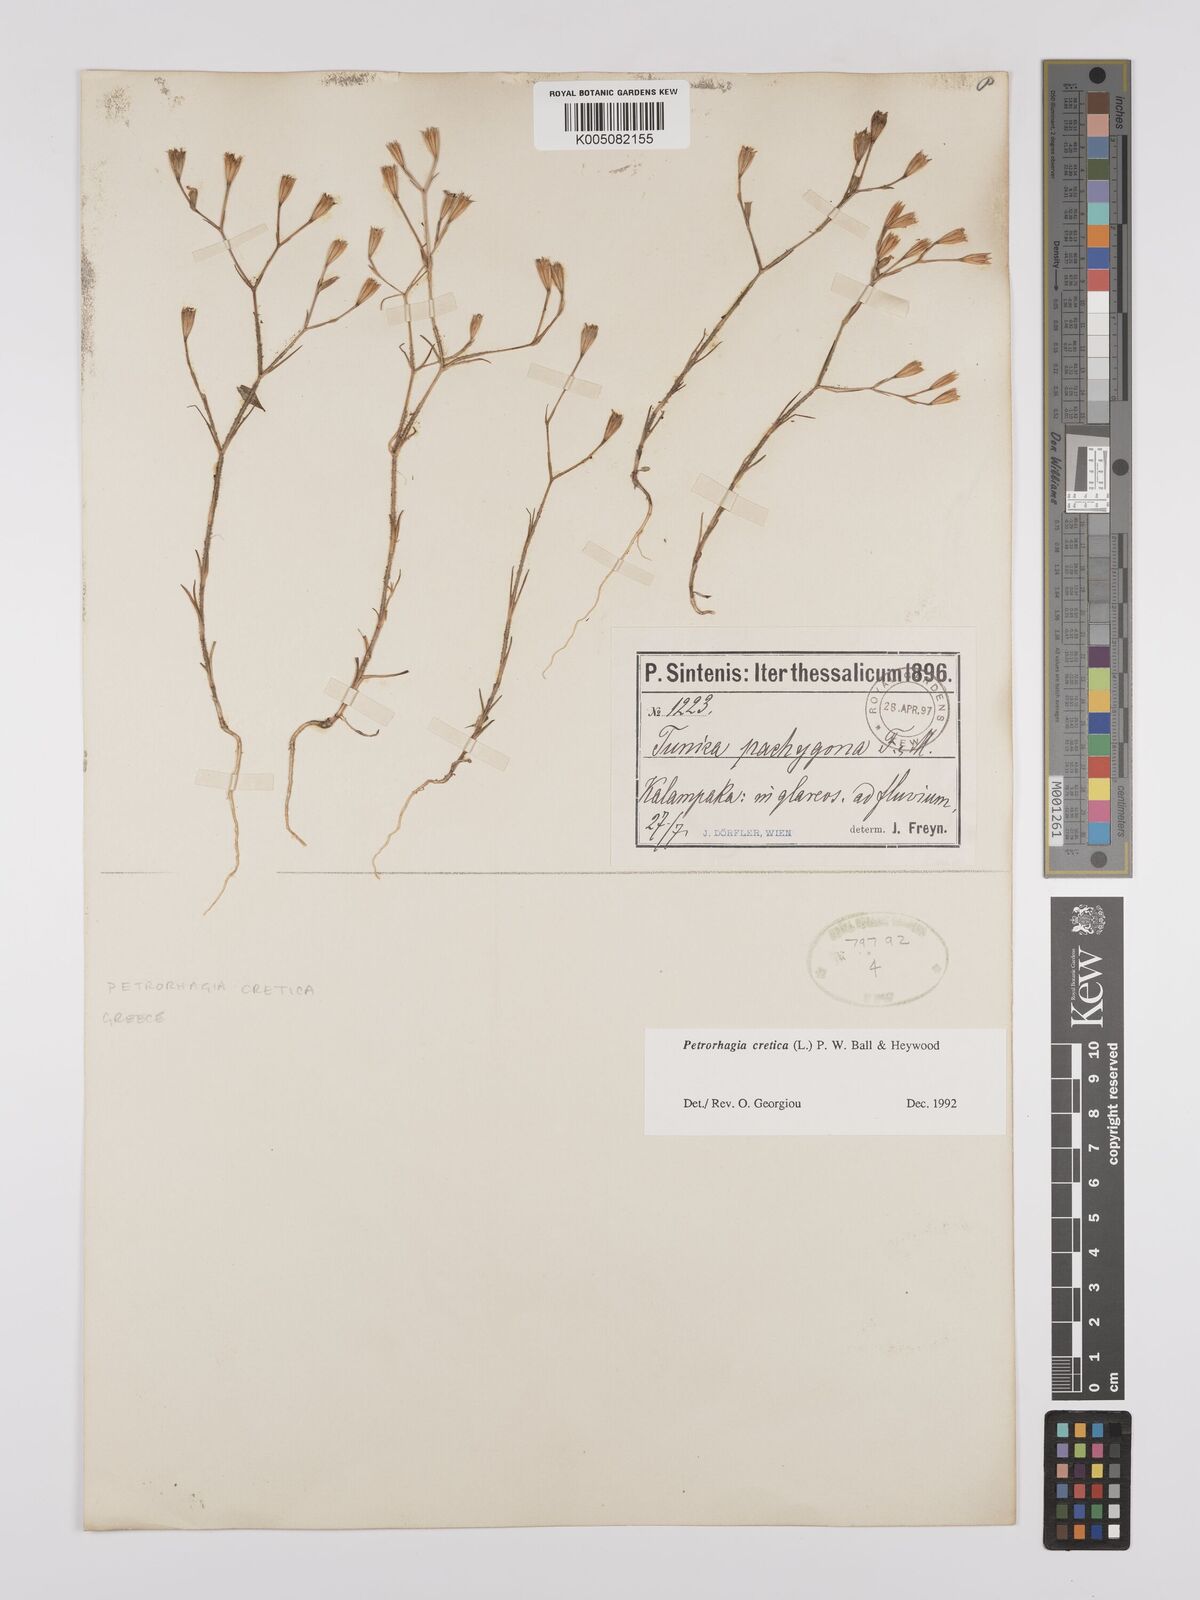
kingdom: Plantae
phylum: Tracheophyta
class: Magnoliopsida
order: Caryophyllales
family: Caryophyllaceae
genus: Petrorhagia
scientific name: Petrorhagia cretica
